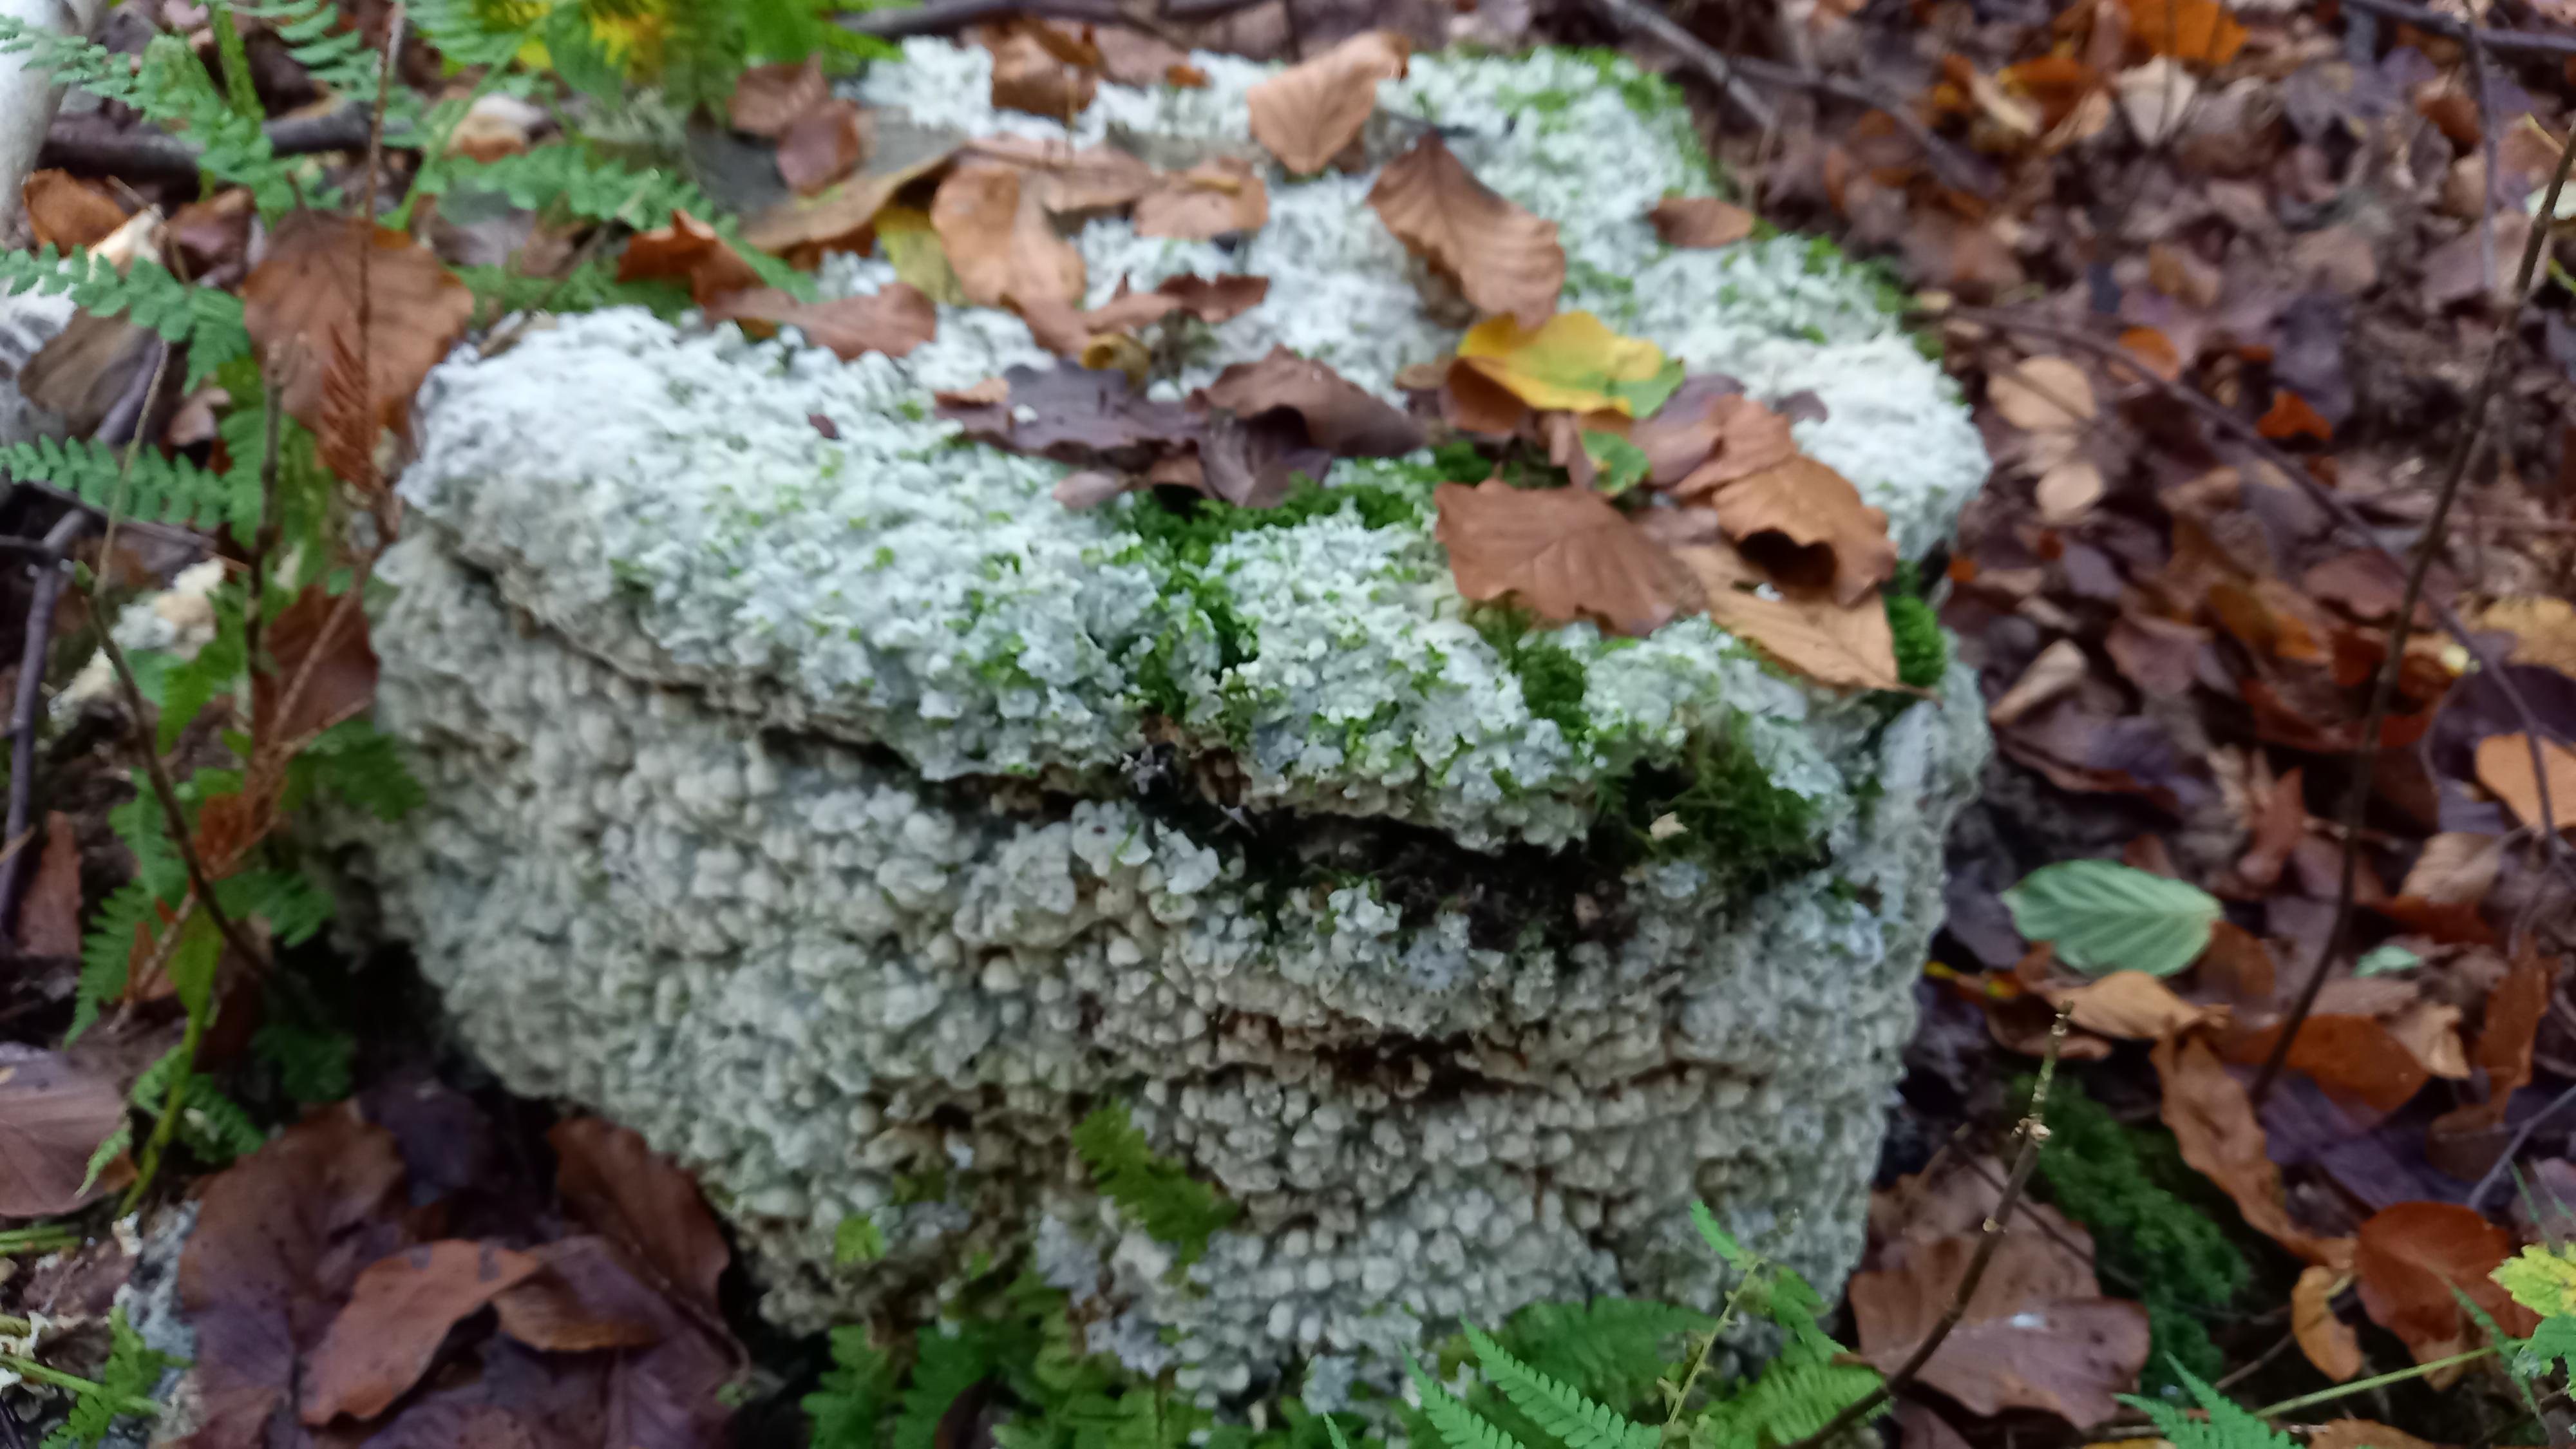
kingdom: Fungi
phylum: Basidiomycota
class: Agaricomycetes
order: Polyporales
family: Meruliaceae
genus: Physisporinus
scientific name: Physisporinus vitreus
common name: mastesvamp
